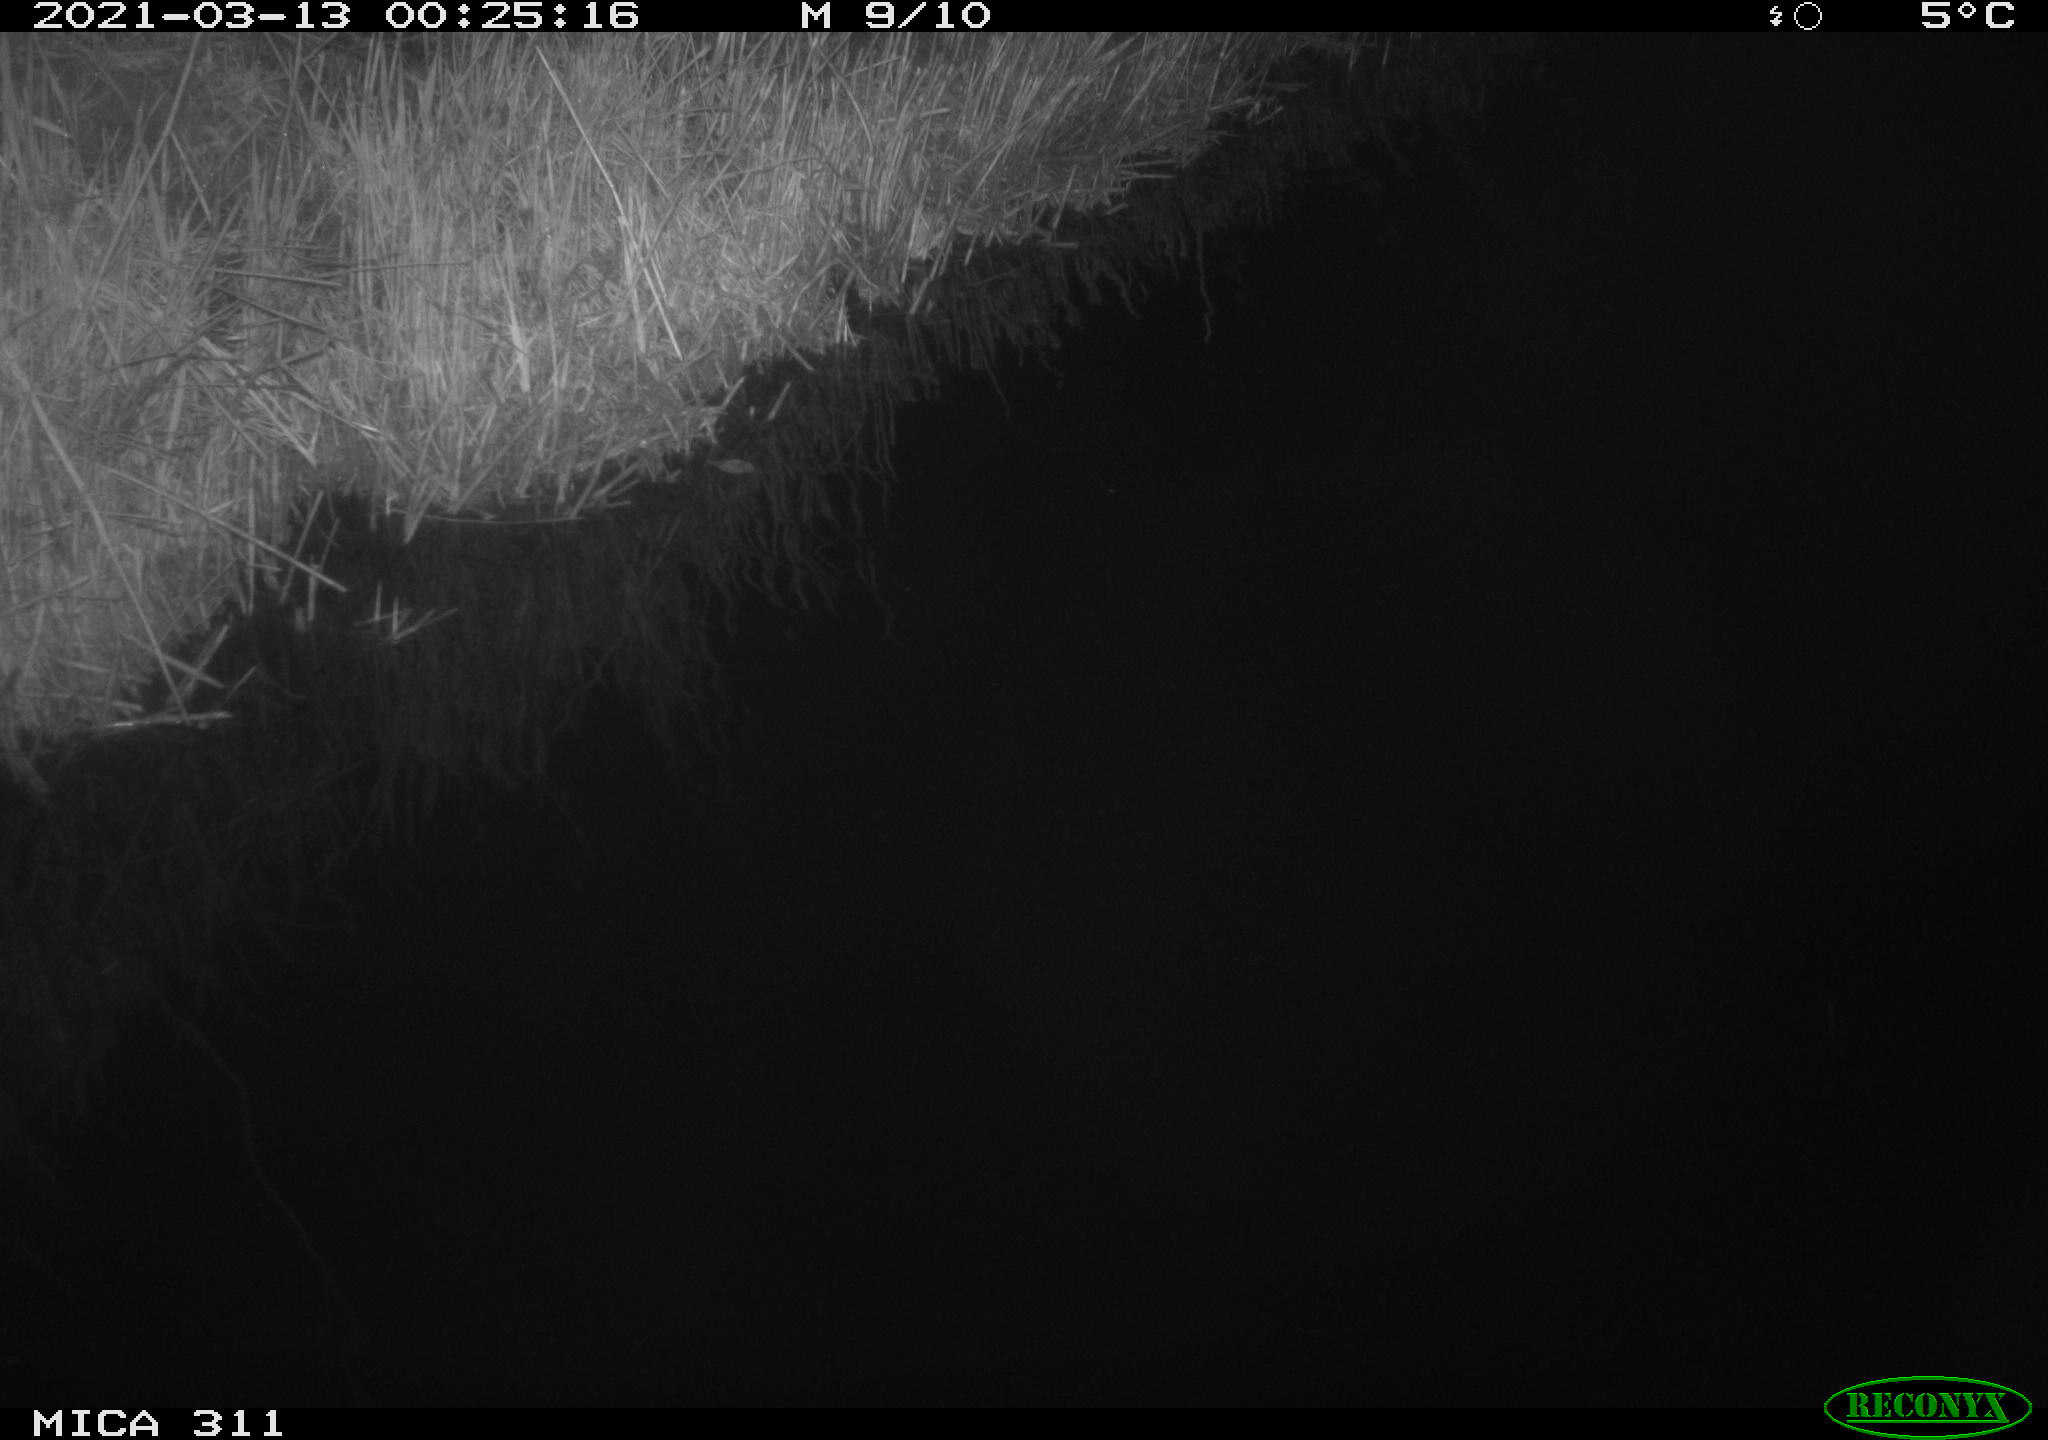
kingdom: Animalia
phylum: Chordata
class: Aves
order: Gruiformes
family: Rallidae
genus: Gallinula
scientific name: Gallinula chloropus
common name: Common moorhen
